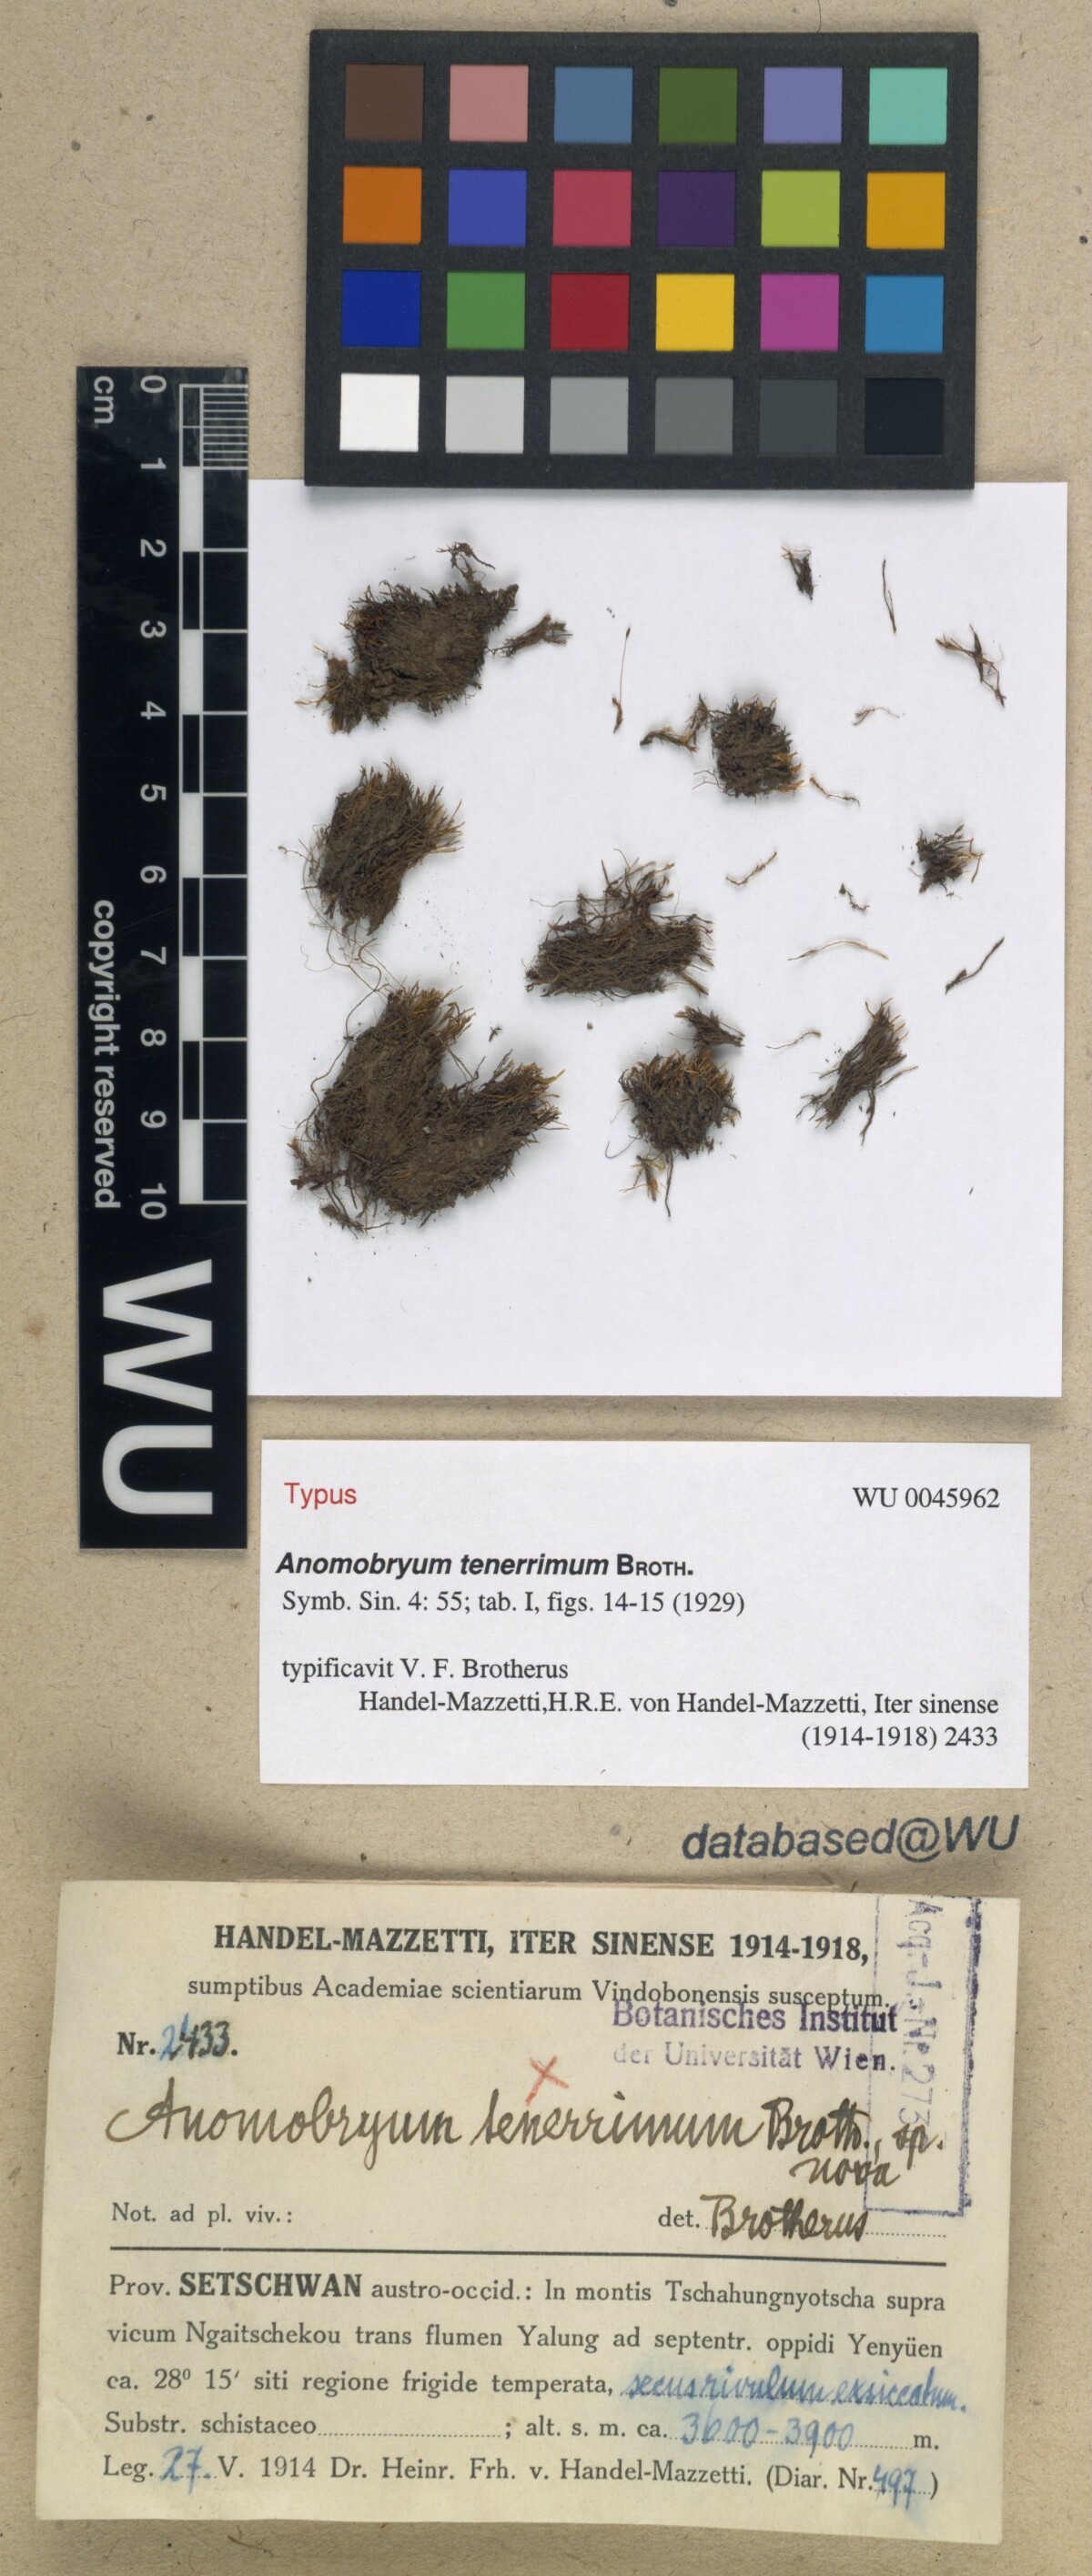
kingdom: Plantae
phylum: Bryophyta
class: Bryopsida
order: Bryales
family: Bryaceae
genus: Anomobryum
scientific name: Anomobryum concinnatum
